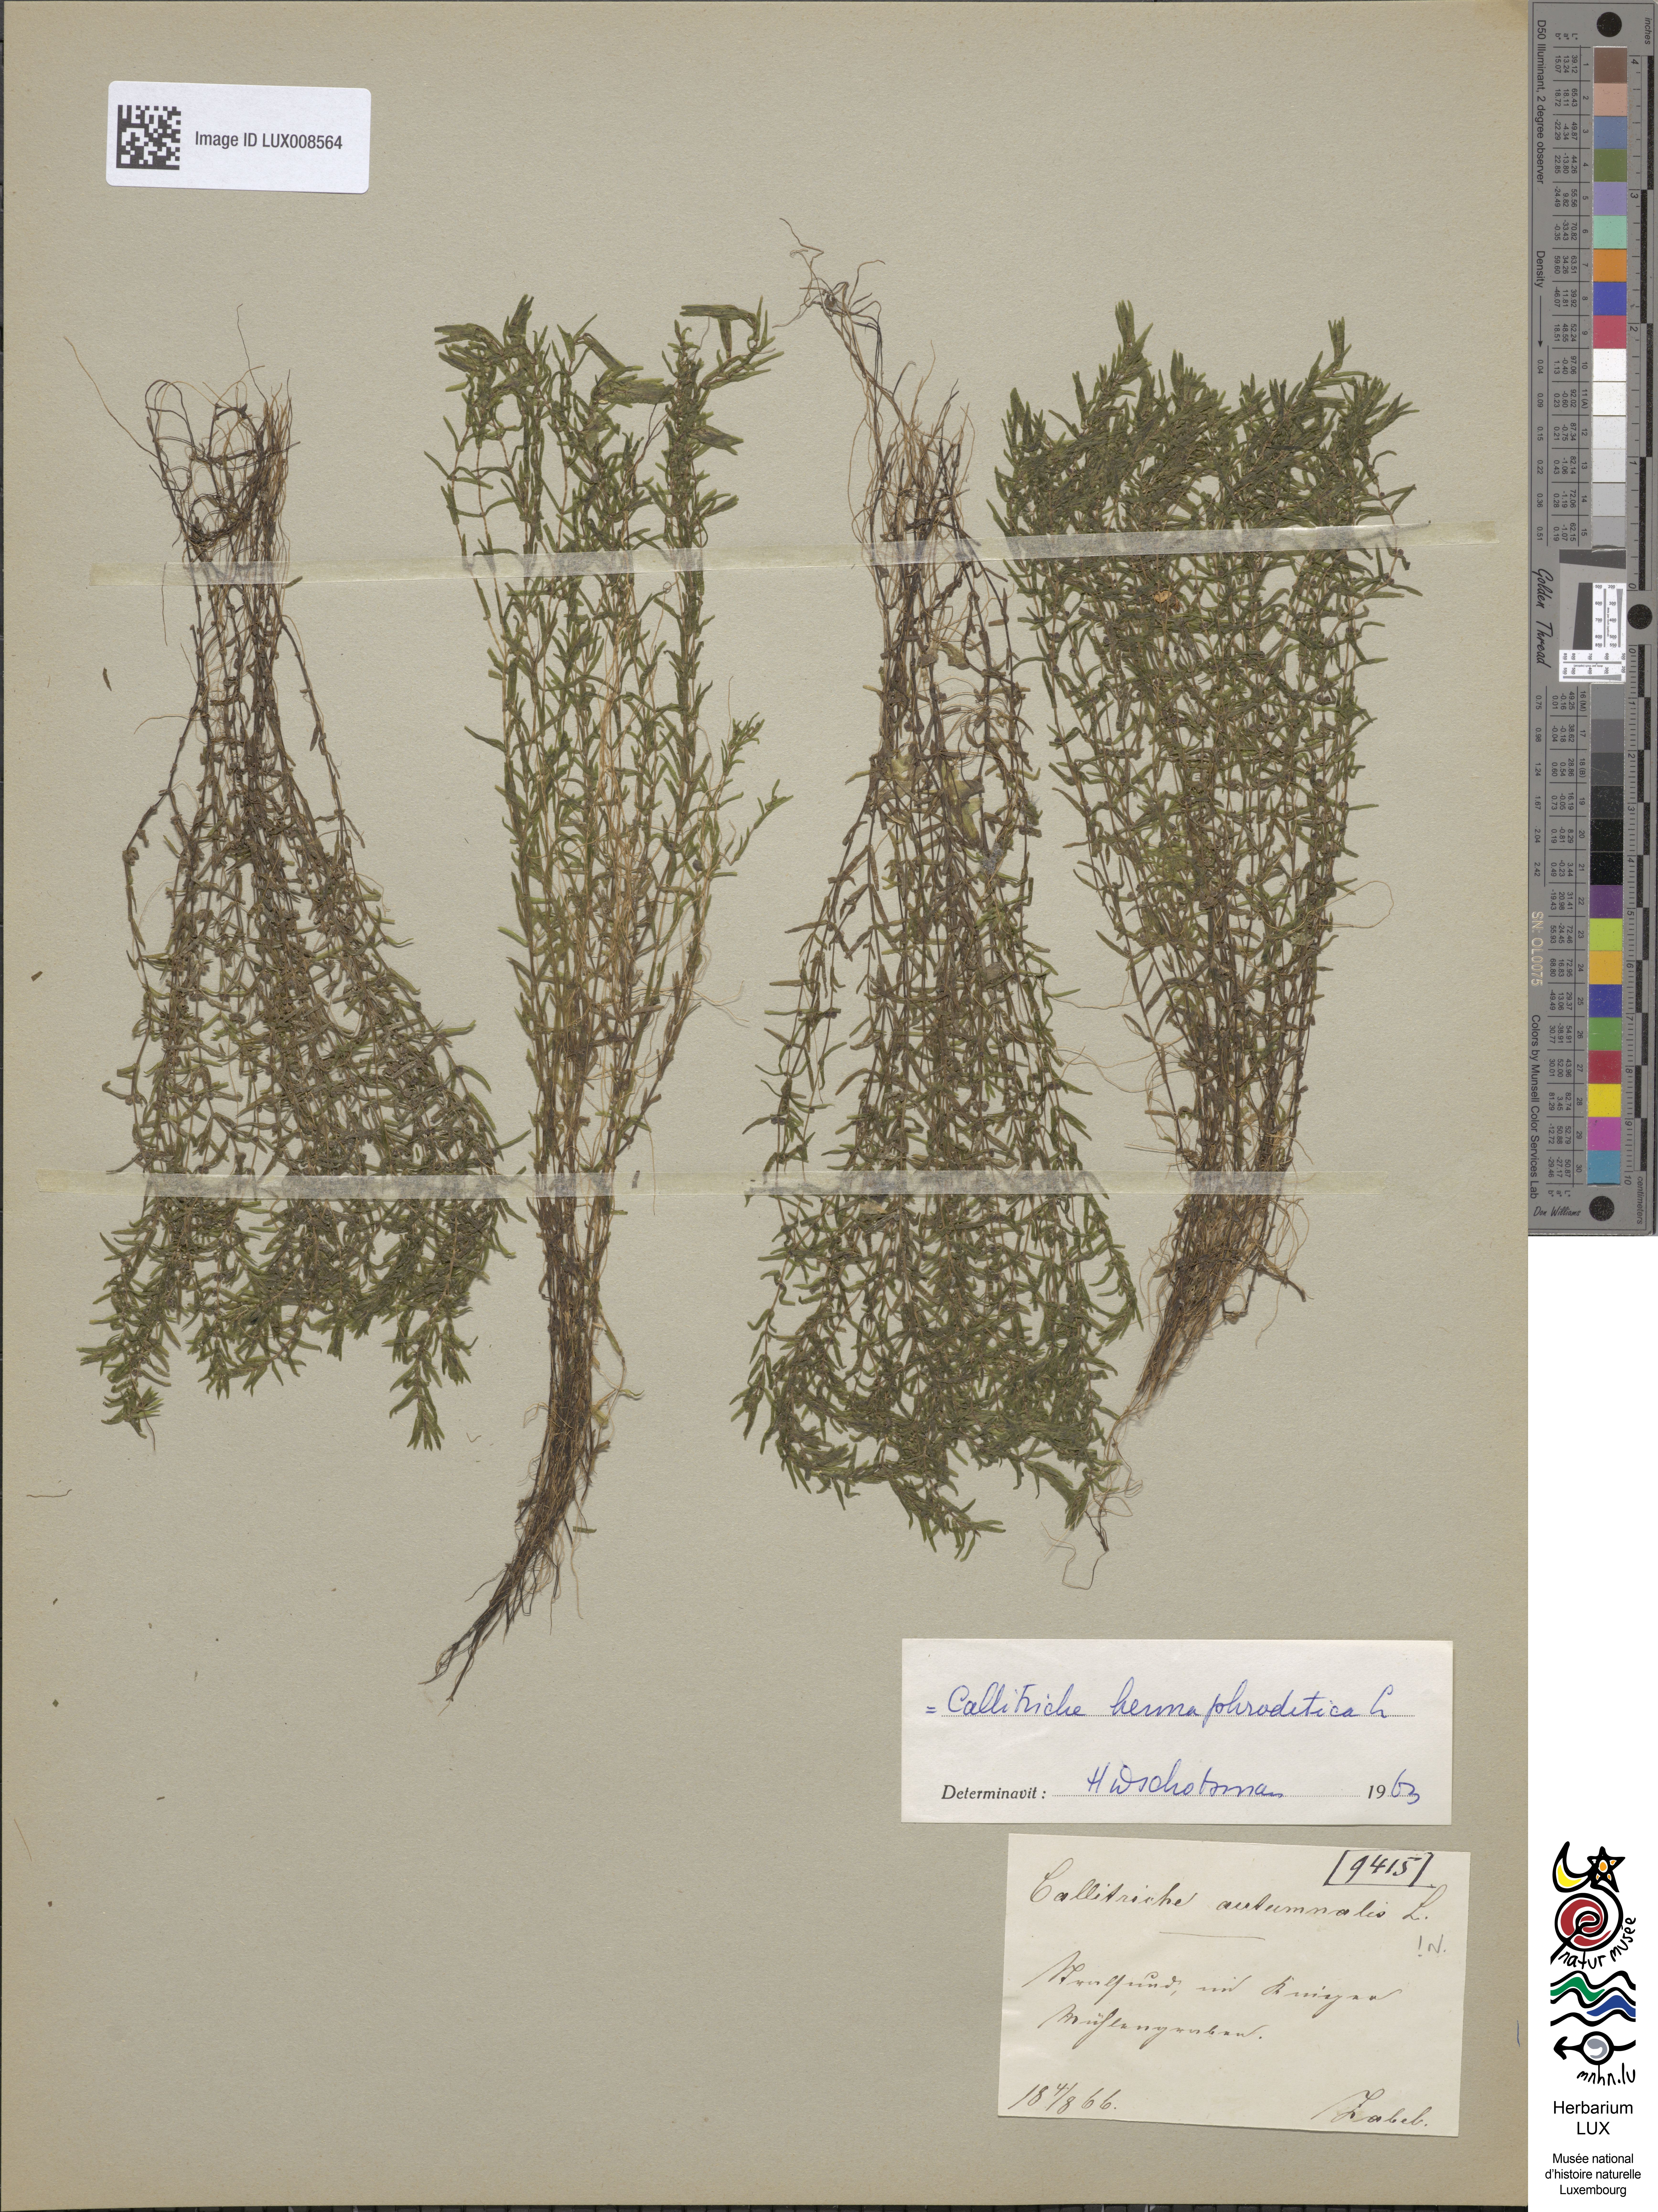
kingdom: Plantae
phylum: Tracheophyta
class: Magnoliopsida
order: Lamiales
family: Plantaginaceae
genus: Callitriche
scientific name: Callitriche hermaphroditica
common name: Autumnal water-starwort
